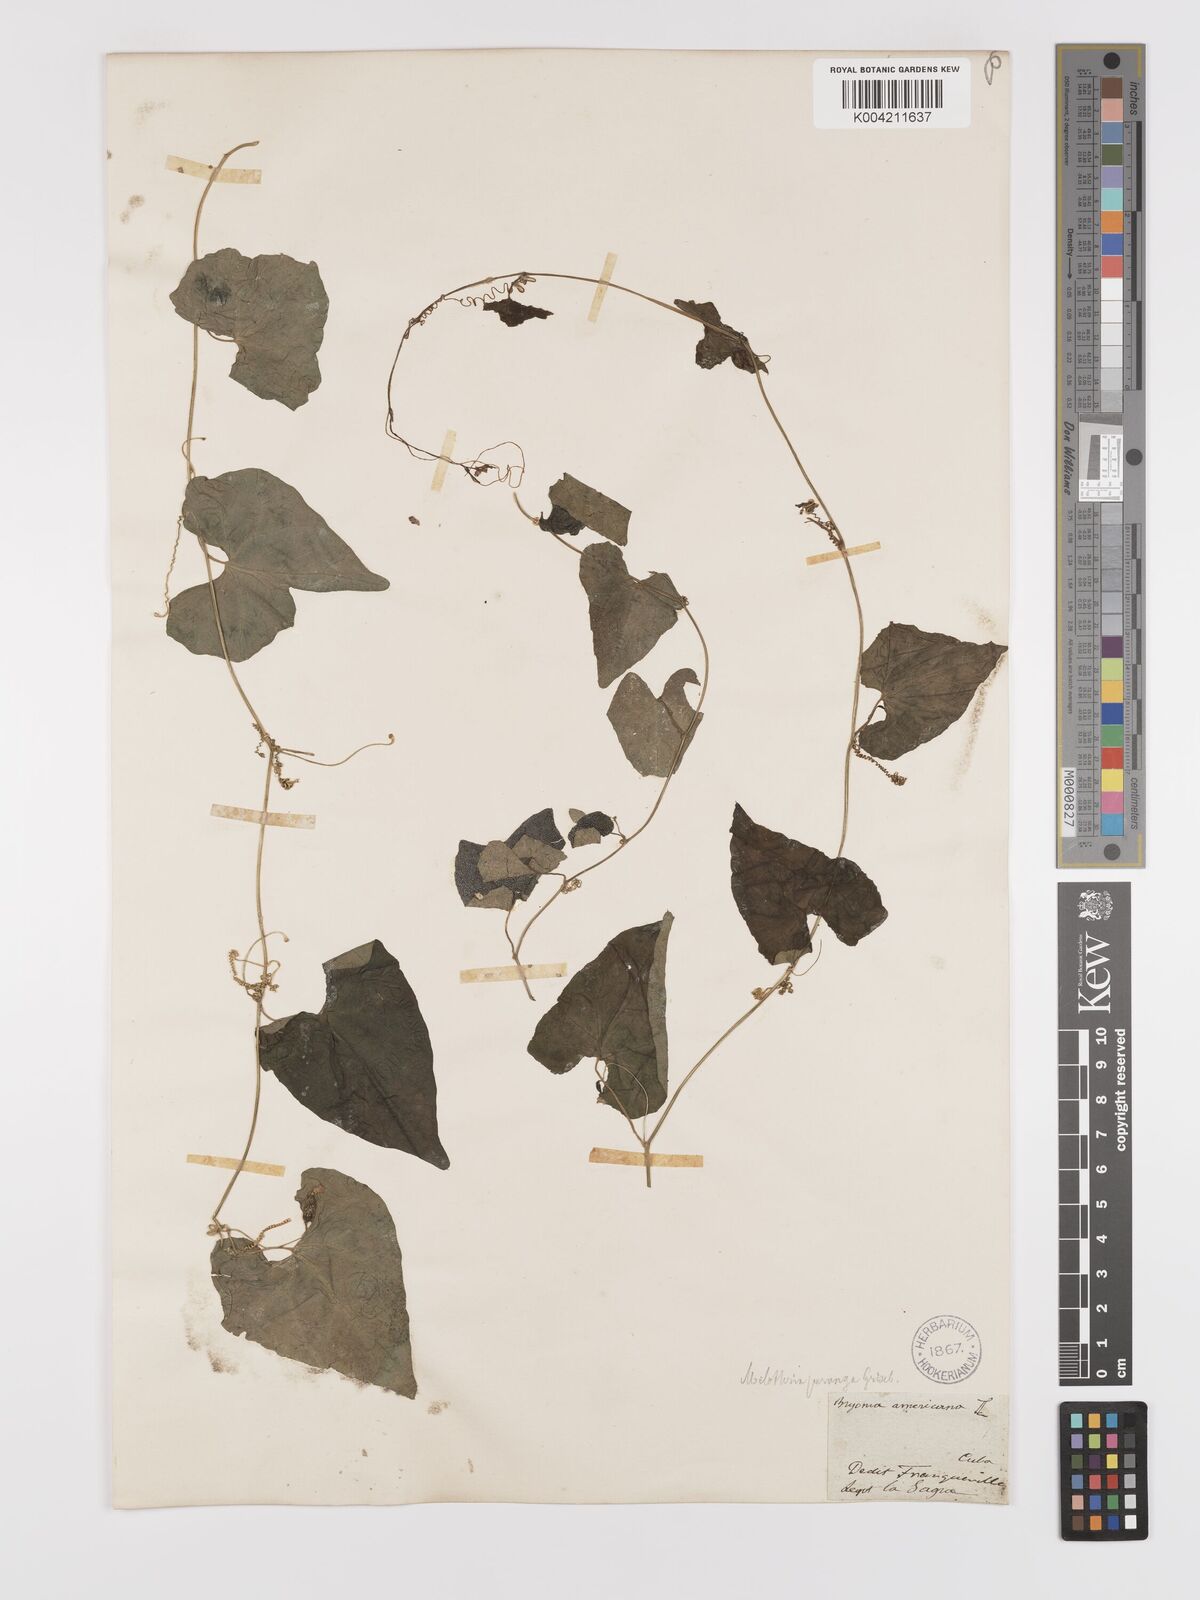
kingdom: Plantae
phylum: Tracheophyta
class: Magnoliopsida
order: Cucurbitales
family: Cucurbitaceae
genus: Melothria
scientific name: Melothria
